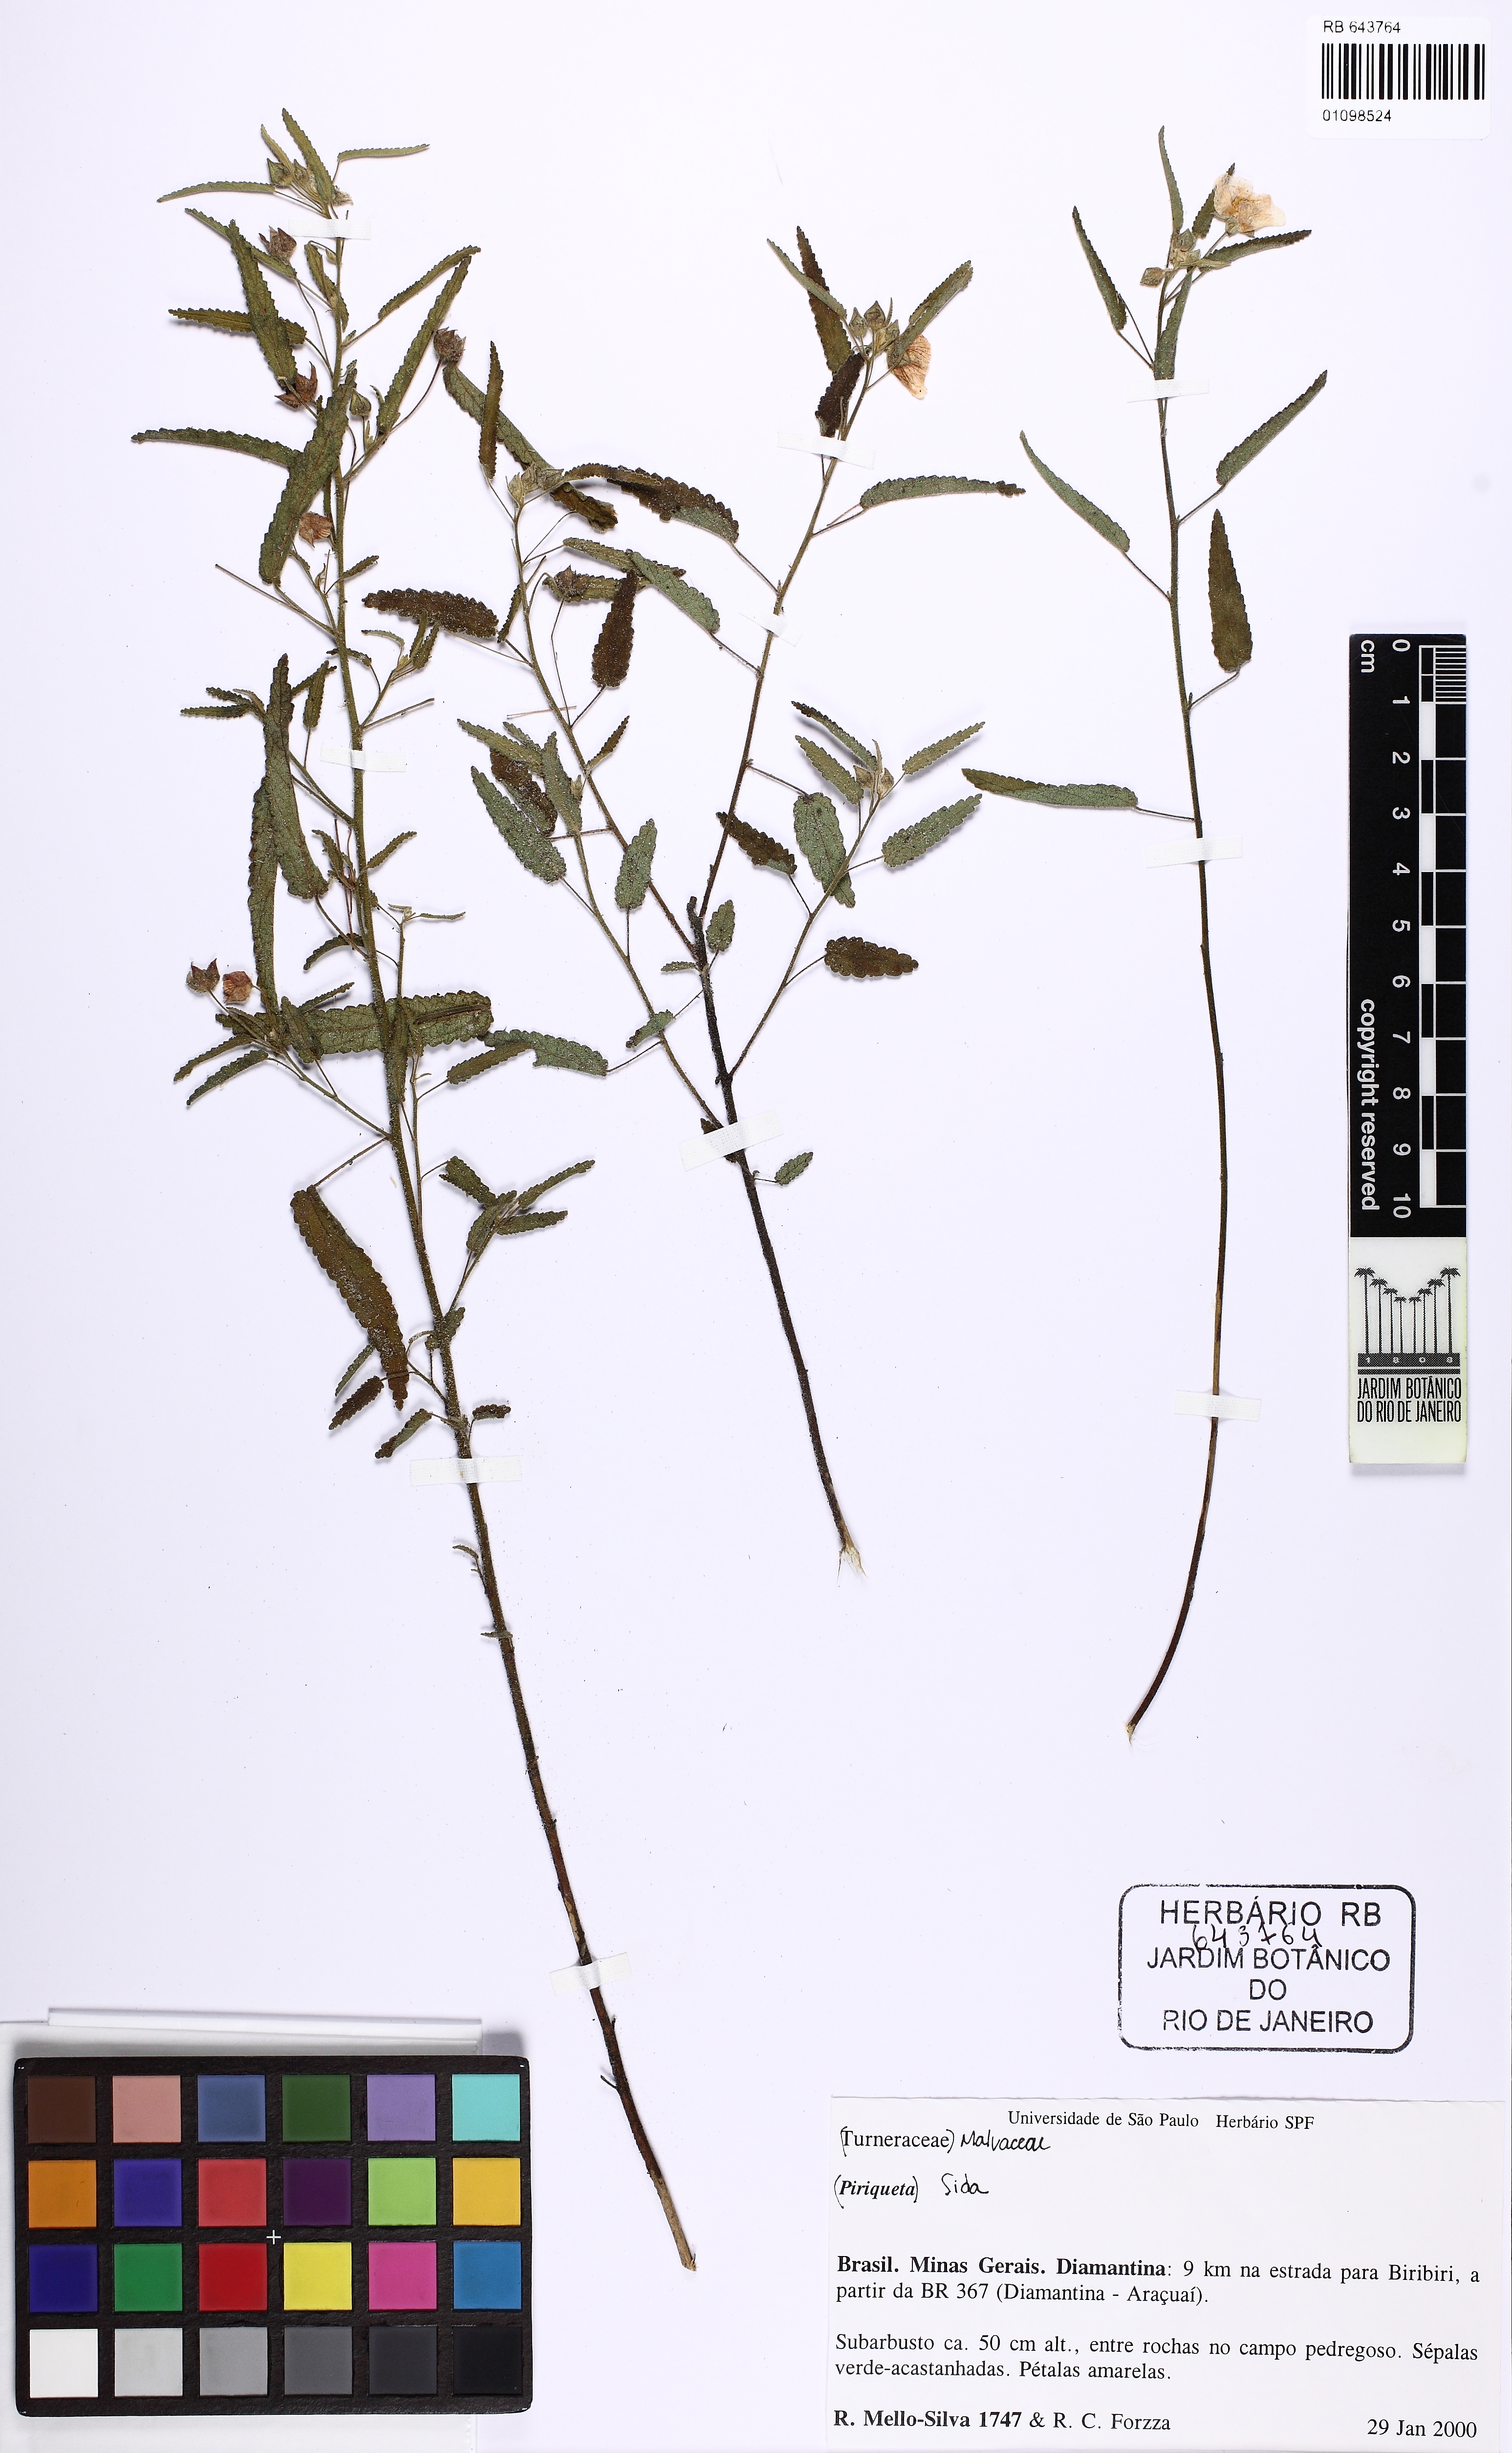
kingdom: Plantae
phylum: Tracheophyta
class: Magnoliopsida
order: Malvales
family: Malvaceae
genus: Sida
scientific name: Sida
